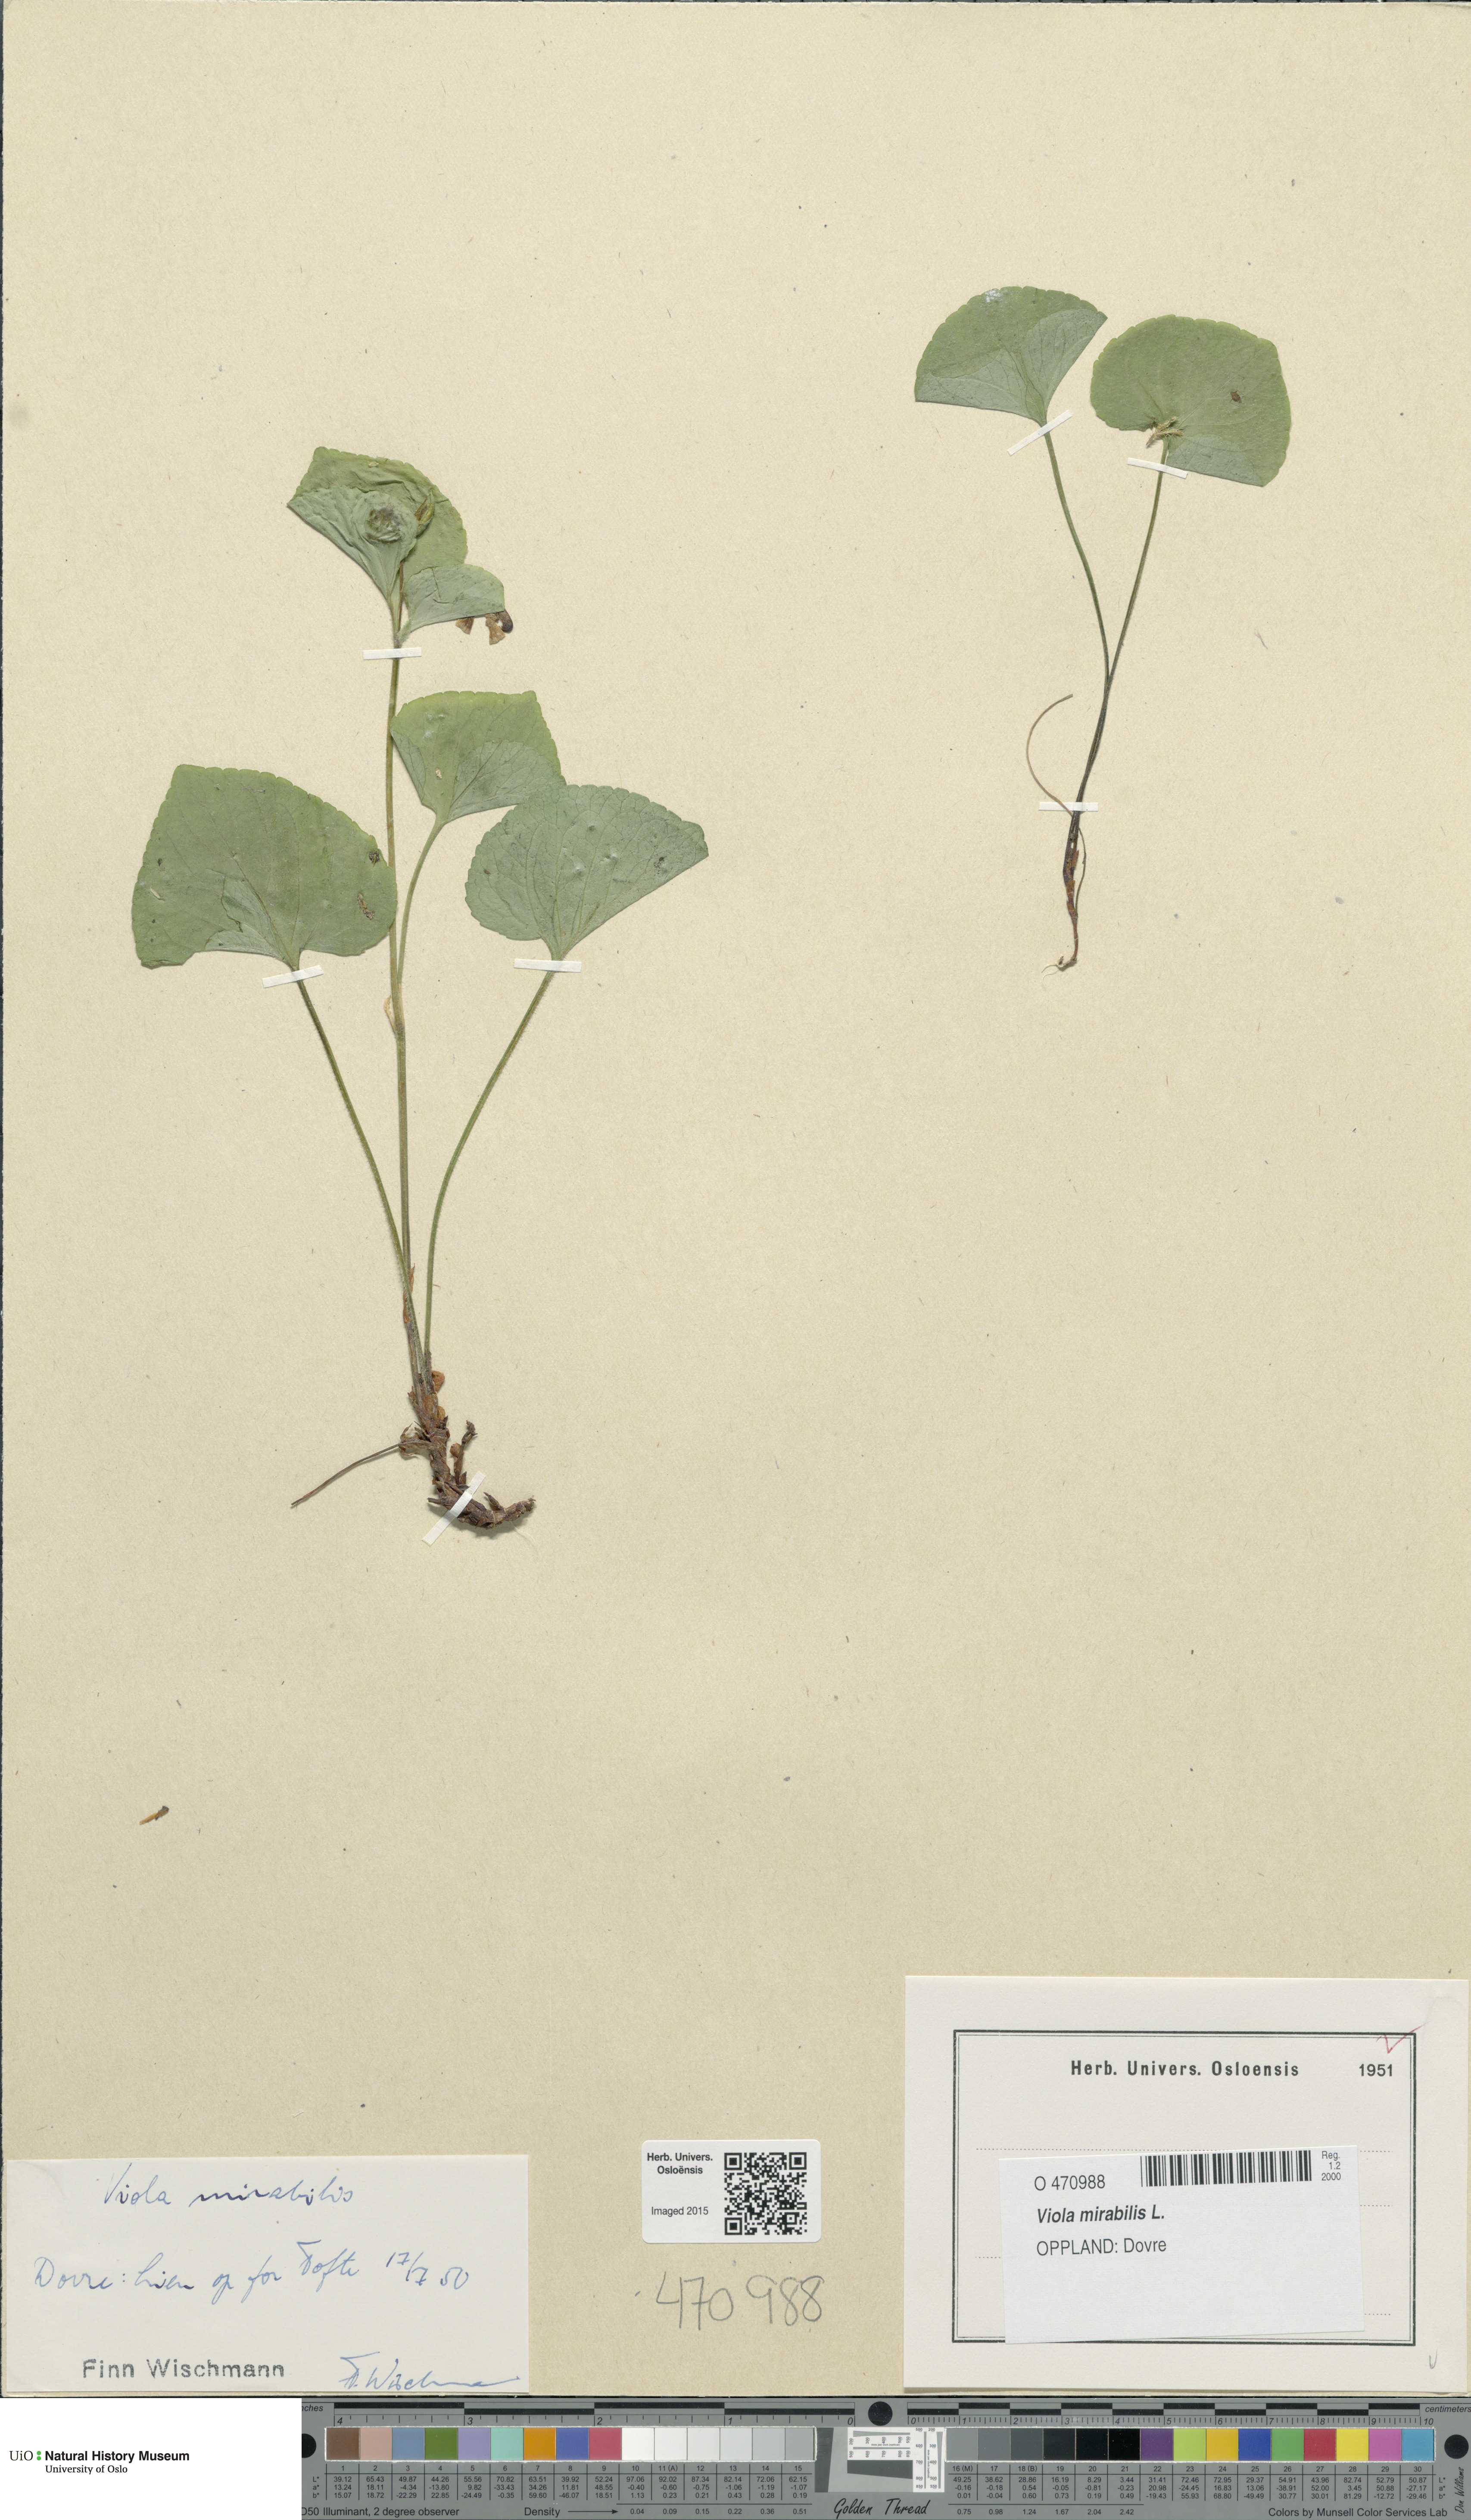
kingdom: Plantae
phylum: Tracheophyta
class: Magnoliopsida
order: Malpighiales
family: Violaceae
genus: Viola
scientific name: Viola mirabilis
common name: Wonder violet
